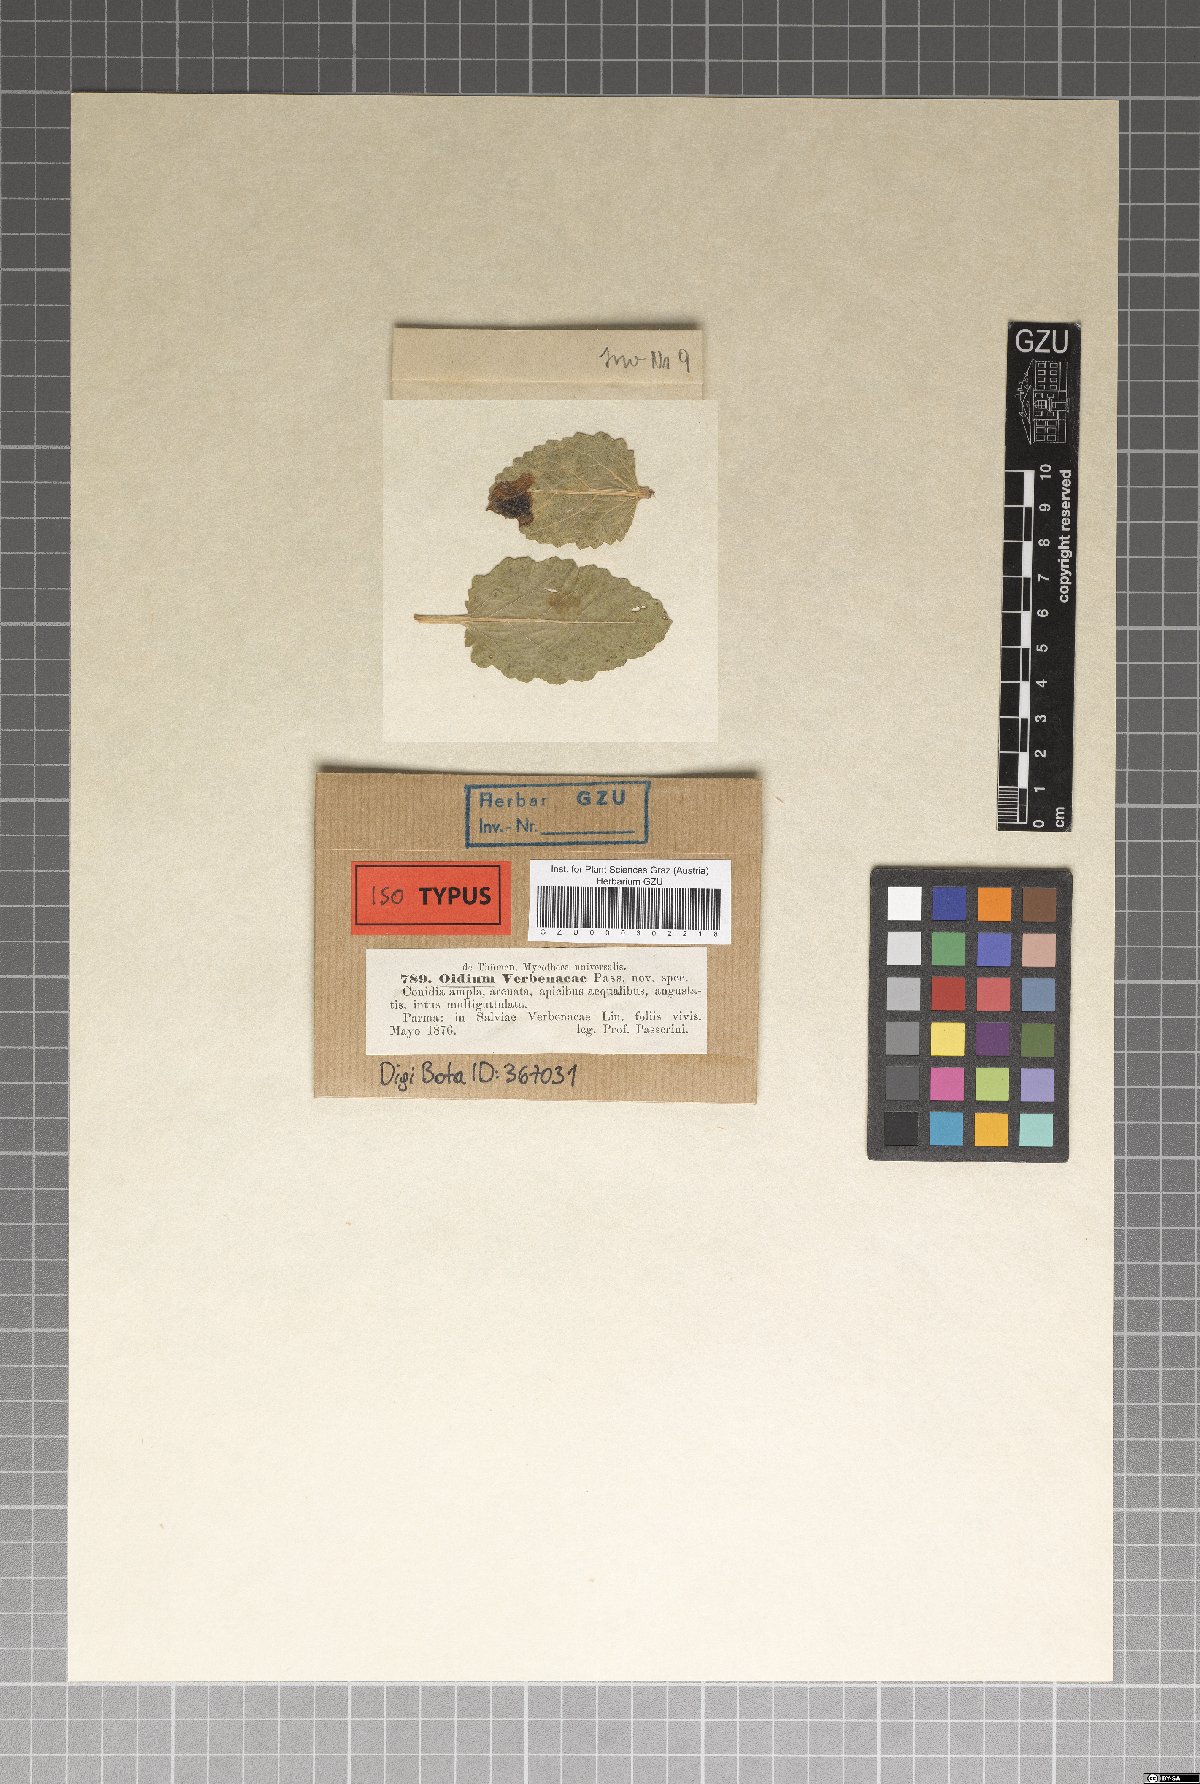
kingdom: Fungi
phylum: Ascomycota
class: Leotiomycetes
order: Helotiales
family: Erysiphaceae
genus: Golovinomyces
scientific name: Golovinomyces biocellatus
